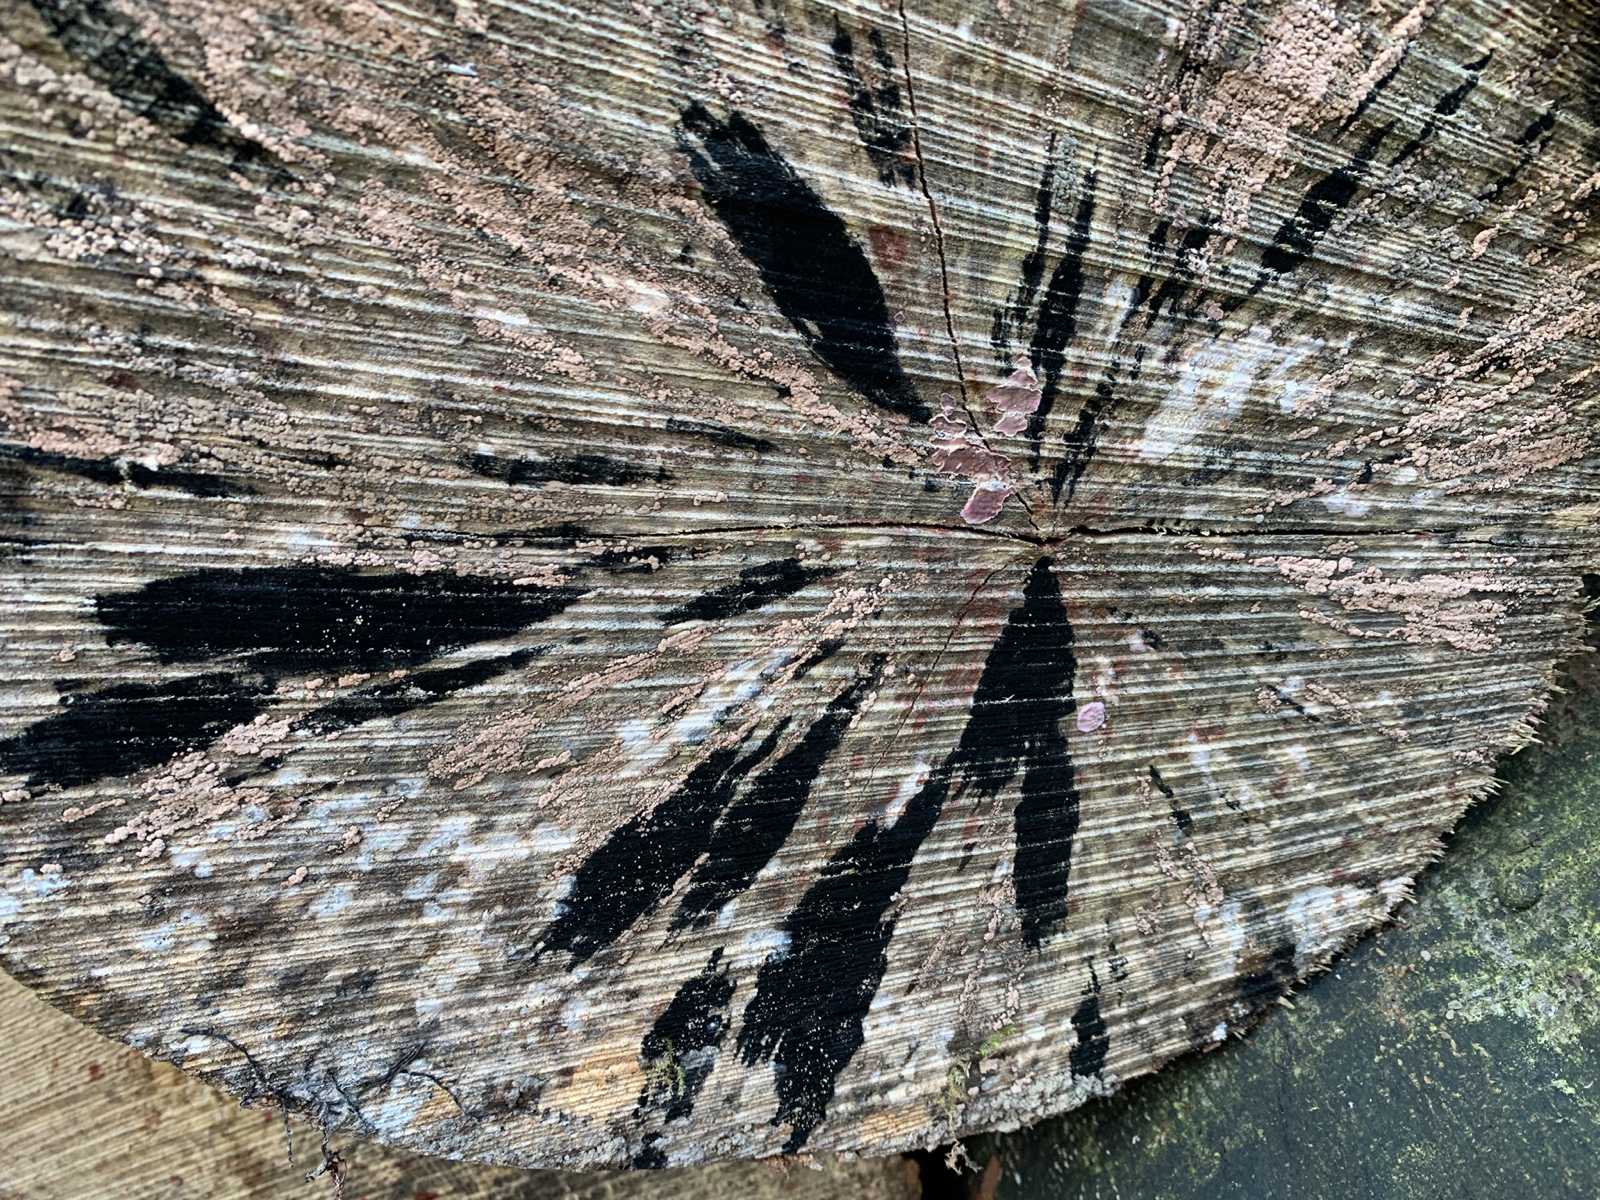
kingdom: Fungi
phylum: Ascomycota
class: Leotiomycetes
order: Helotiales
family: Helotiaceae
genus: Bispora
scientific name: Bispora pallescens
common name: måtte-snitskive
